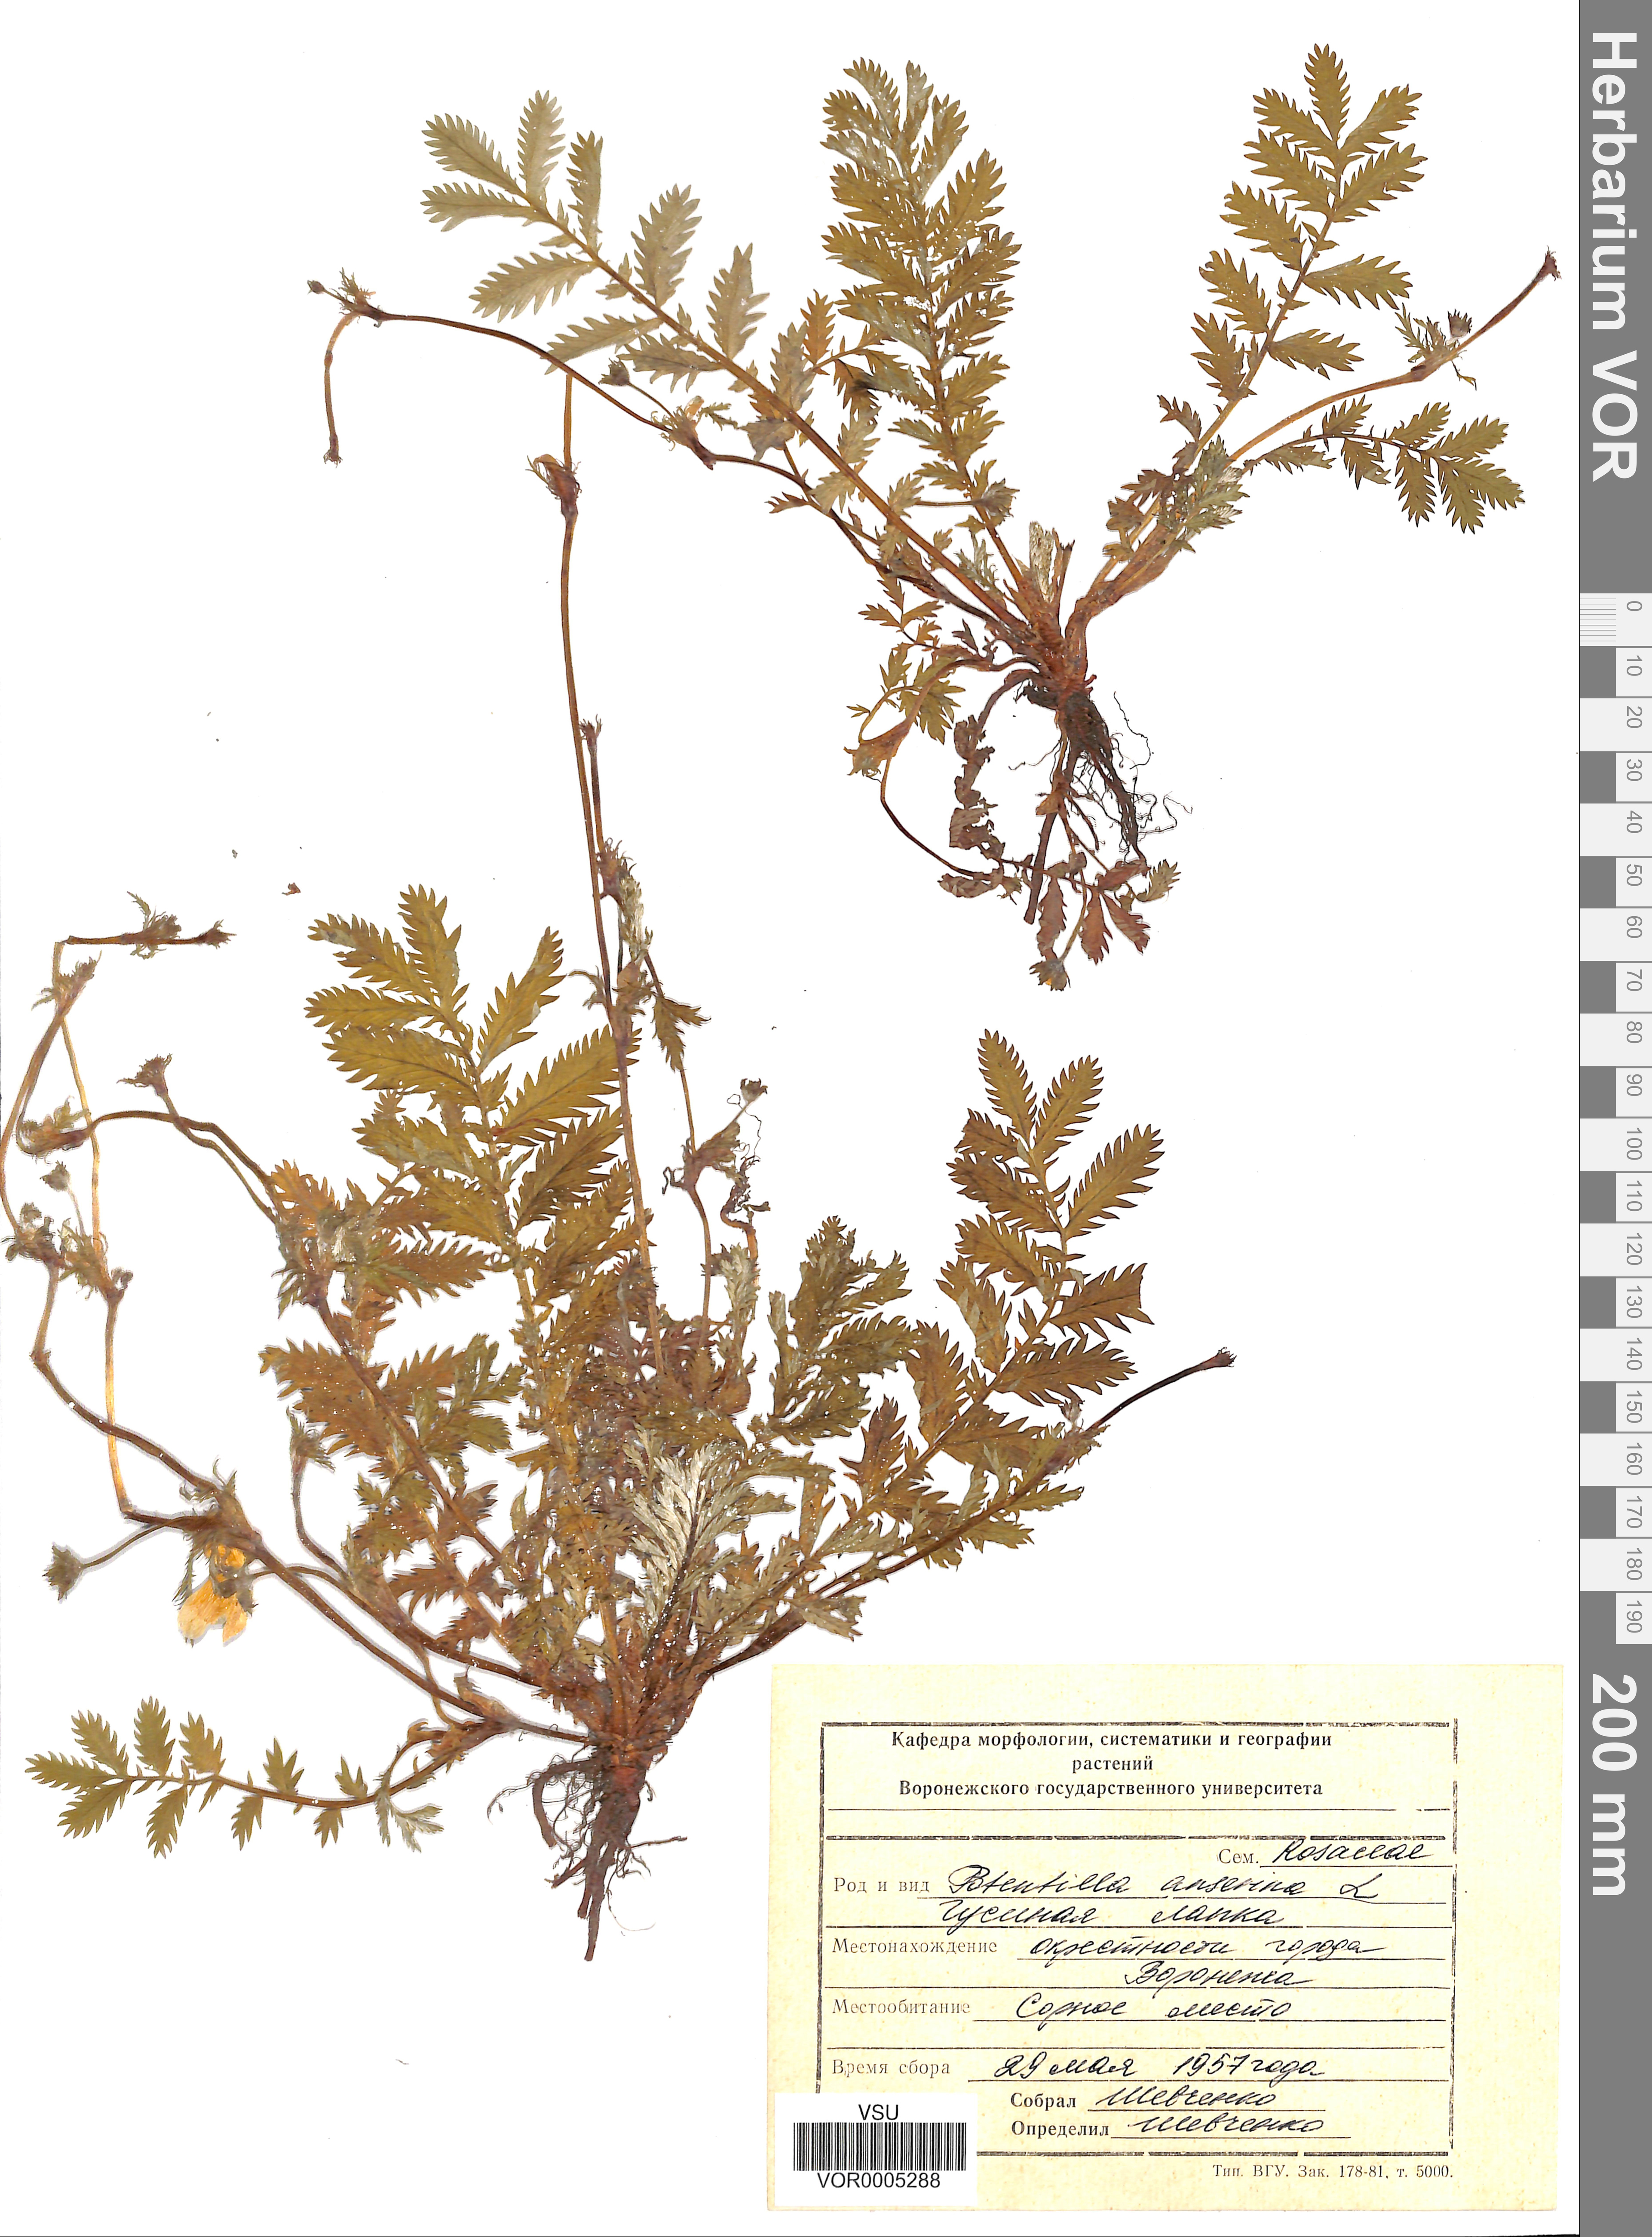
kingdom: Plantae
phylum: Tracheophyta
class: Magnoliopsida
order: Rosales
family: Rosaceae
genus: Argentina
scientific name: Argentina anserina
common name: Common silverweed
